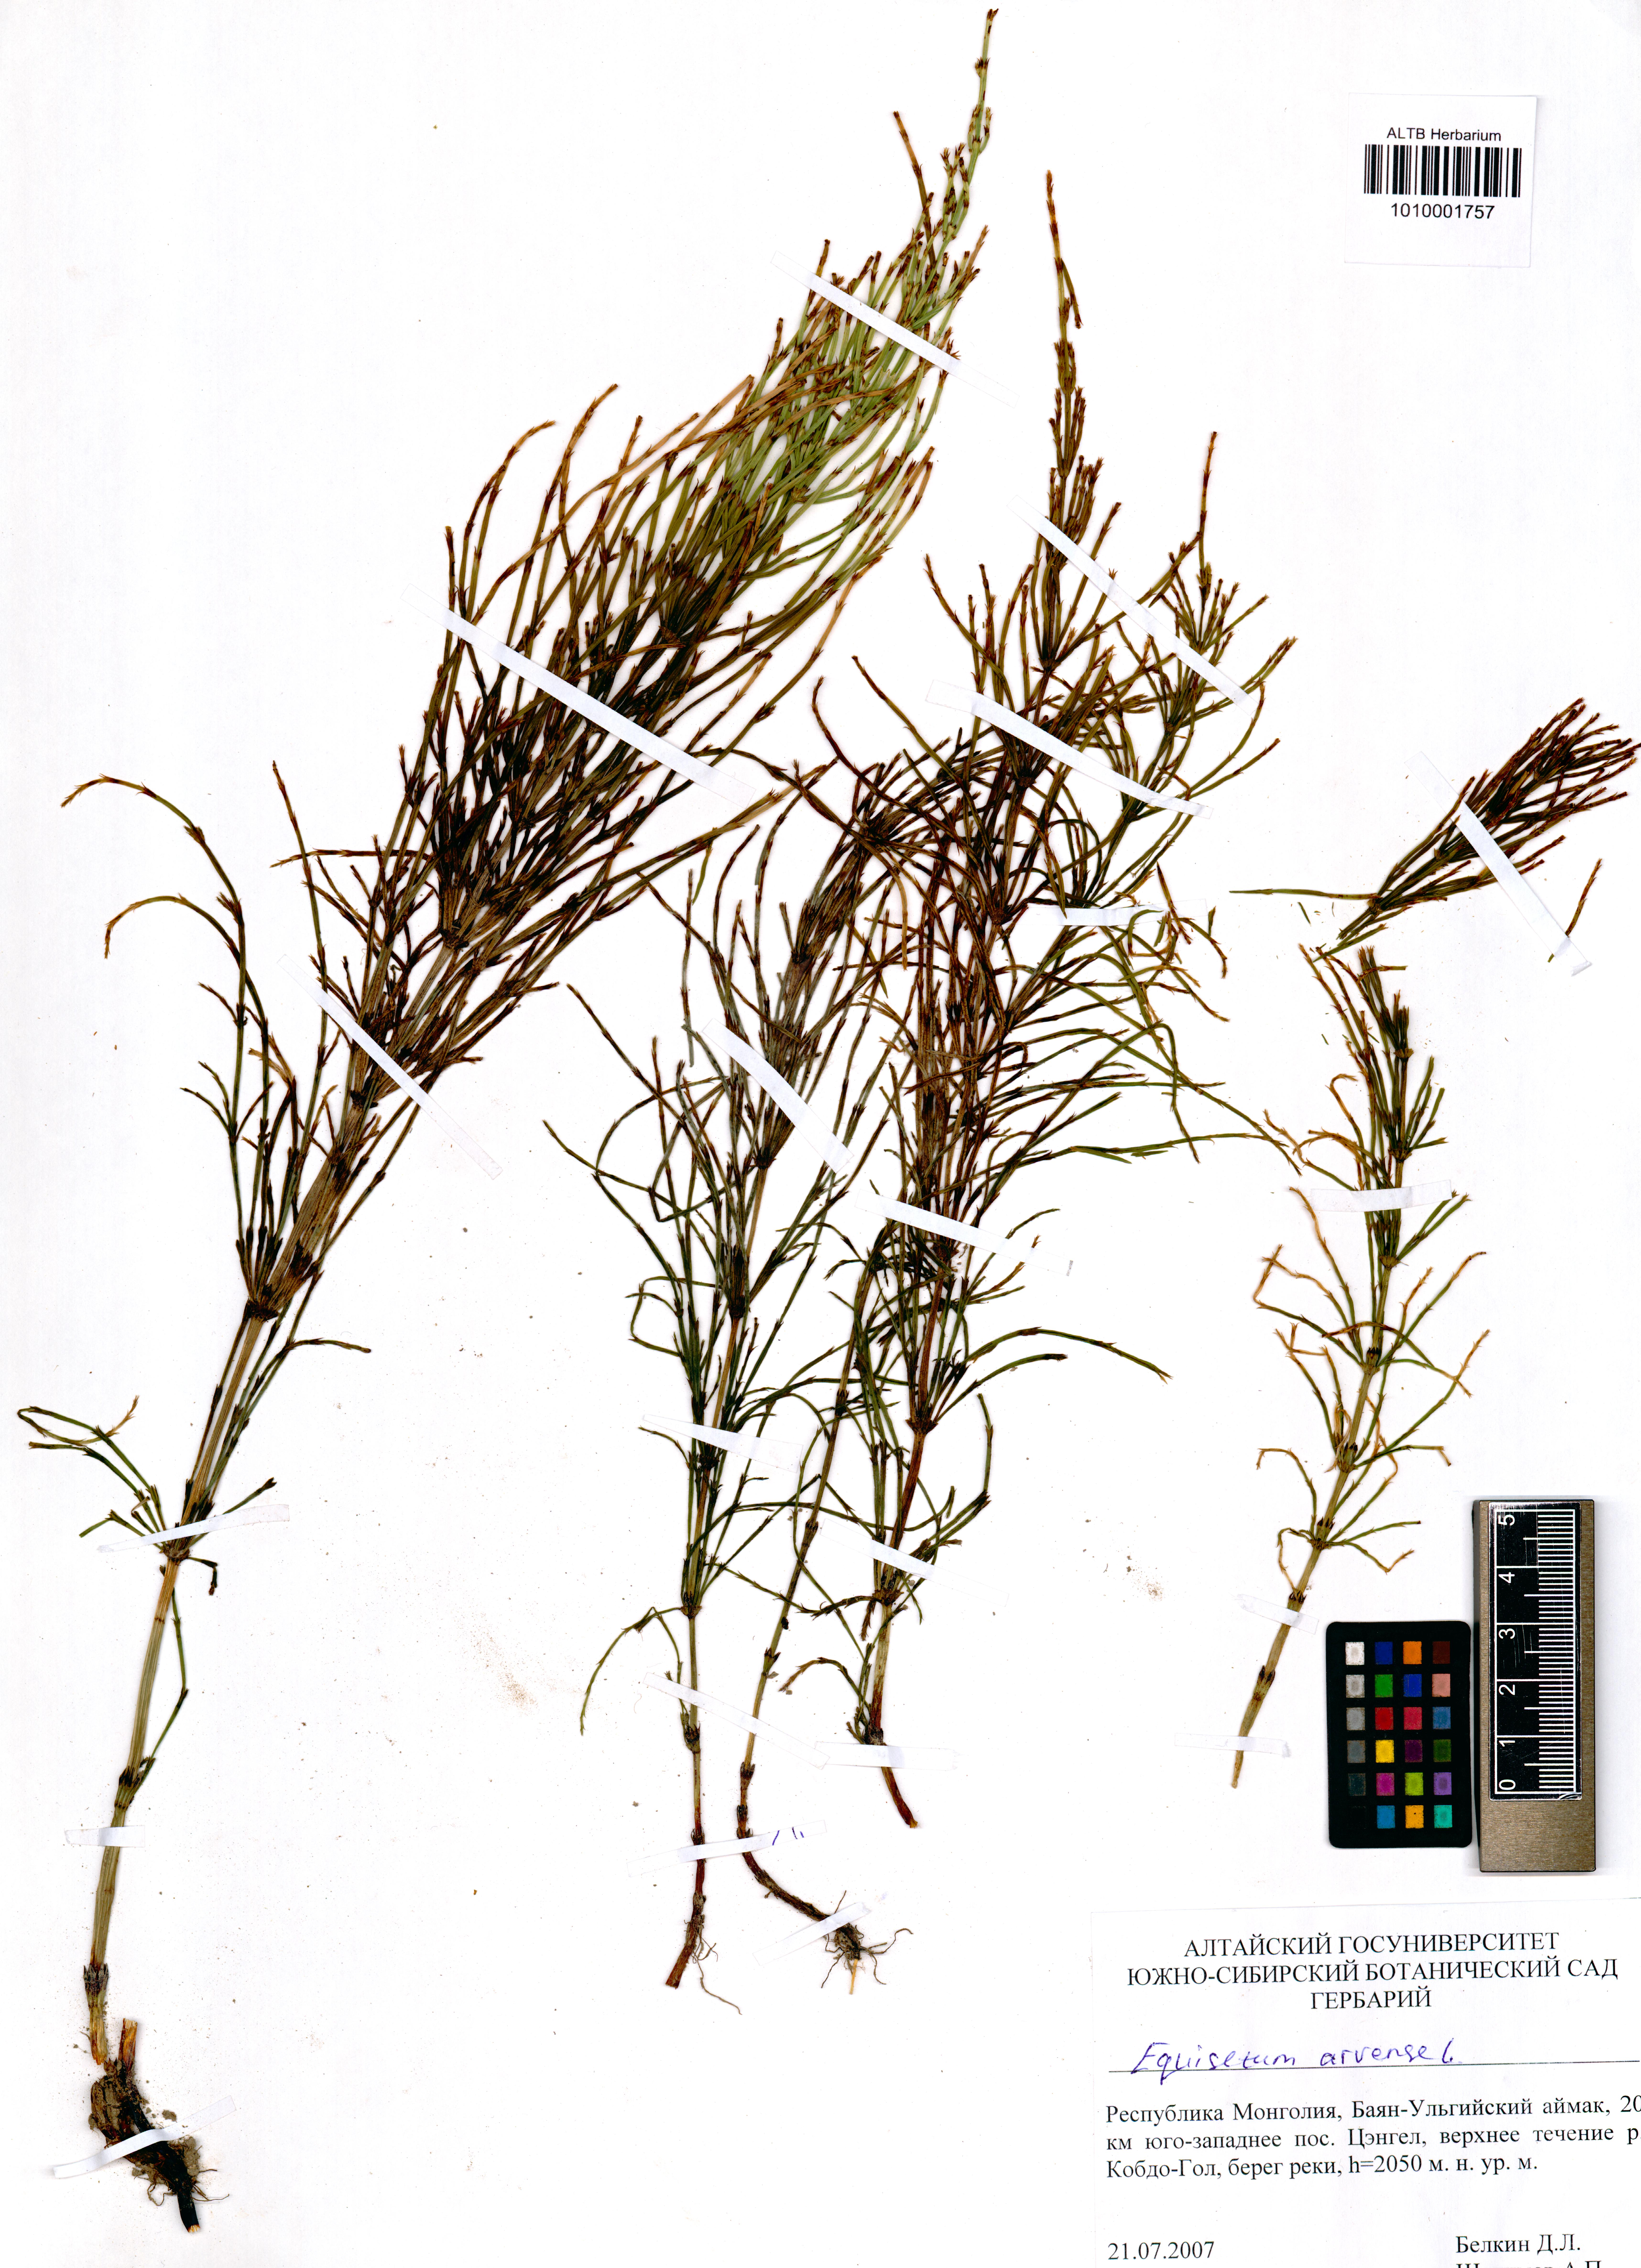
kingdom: Plantae
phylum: Tracheophyta
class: Polypodiopsida
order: Equisetales
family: Equisetaceae
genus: Equisetum
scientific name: Equisetum arvense
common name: Field horsetail
